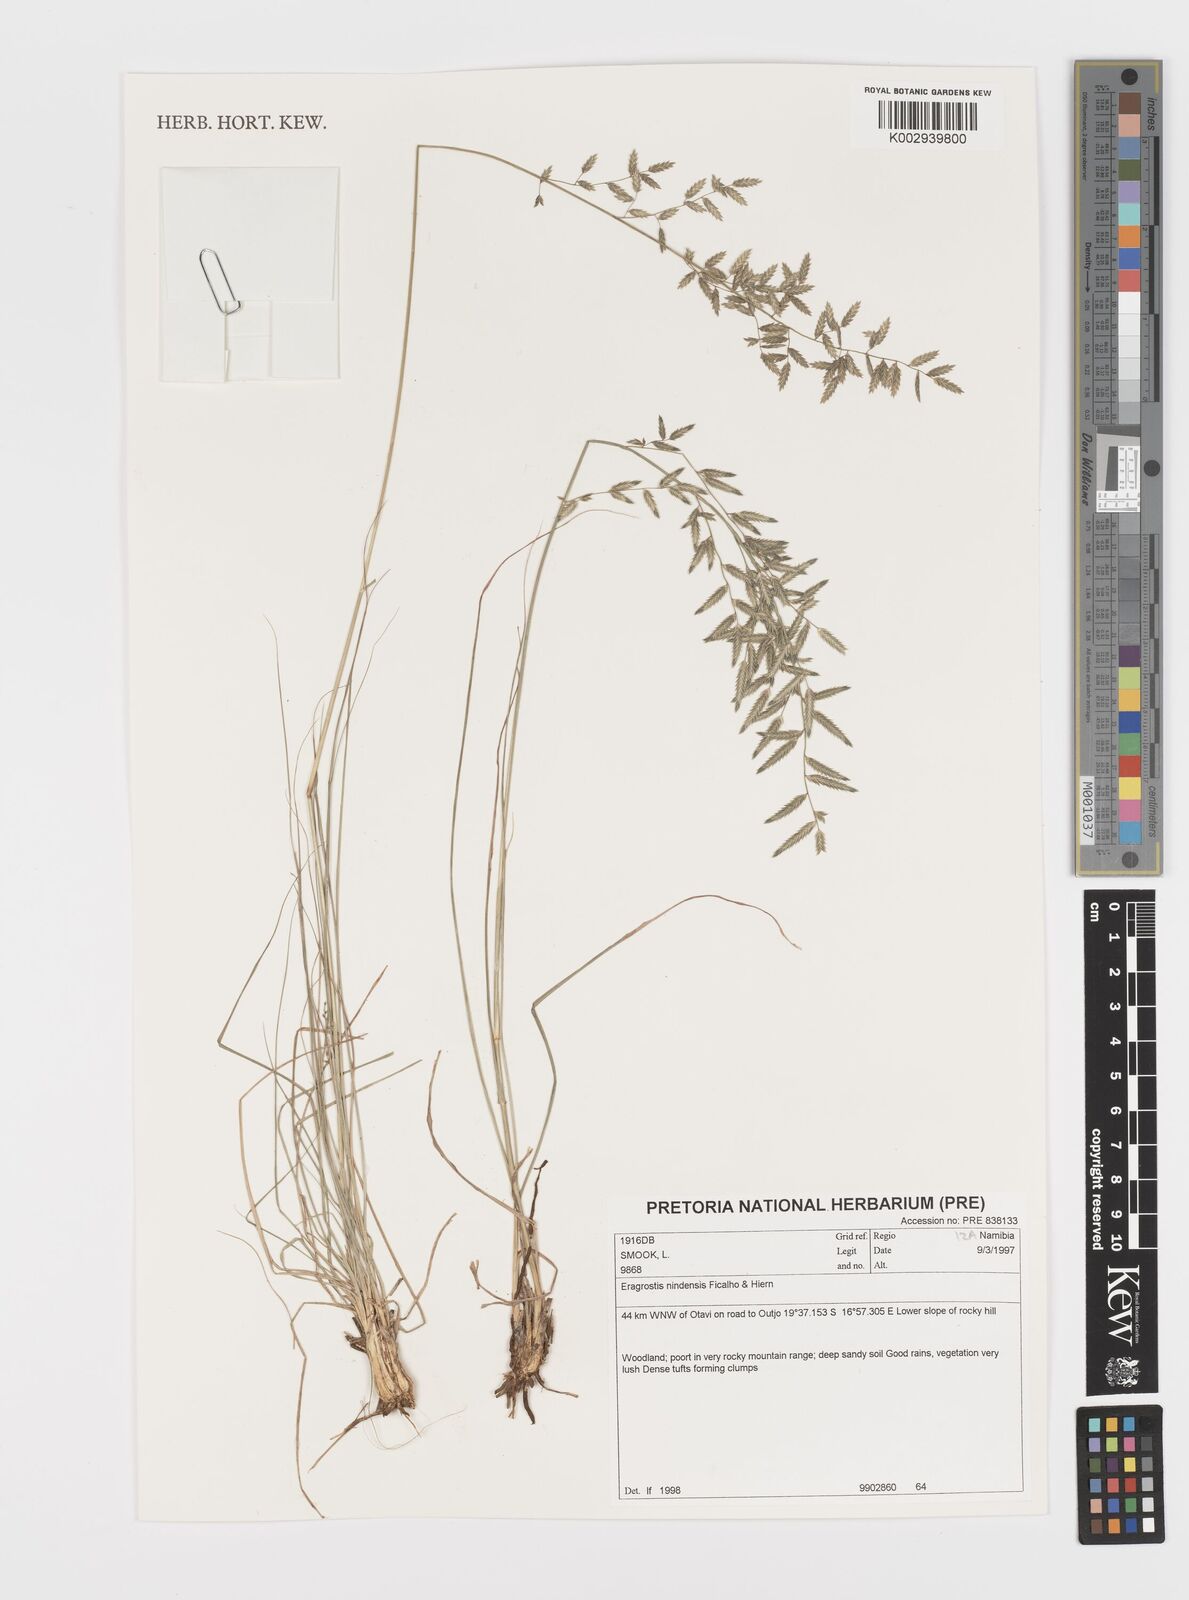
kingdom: Plantae
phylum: Tracheophyta
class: Liliopsida
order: Poales
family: Poaceae
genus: Eragrostis
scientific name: Eragrostis nindensis
